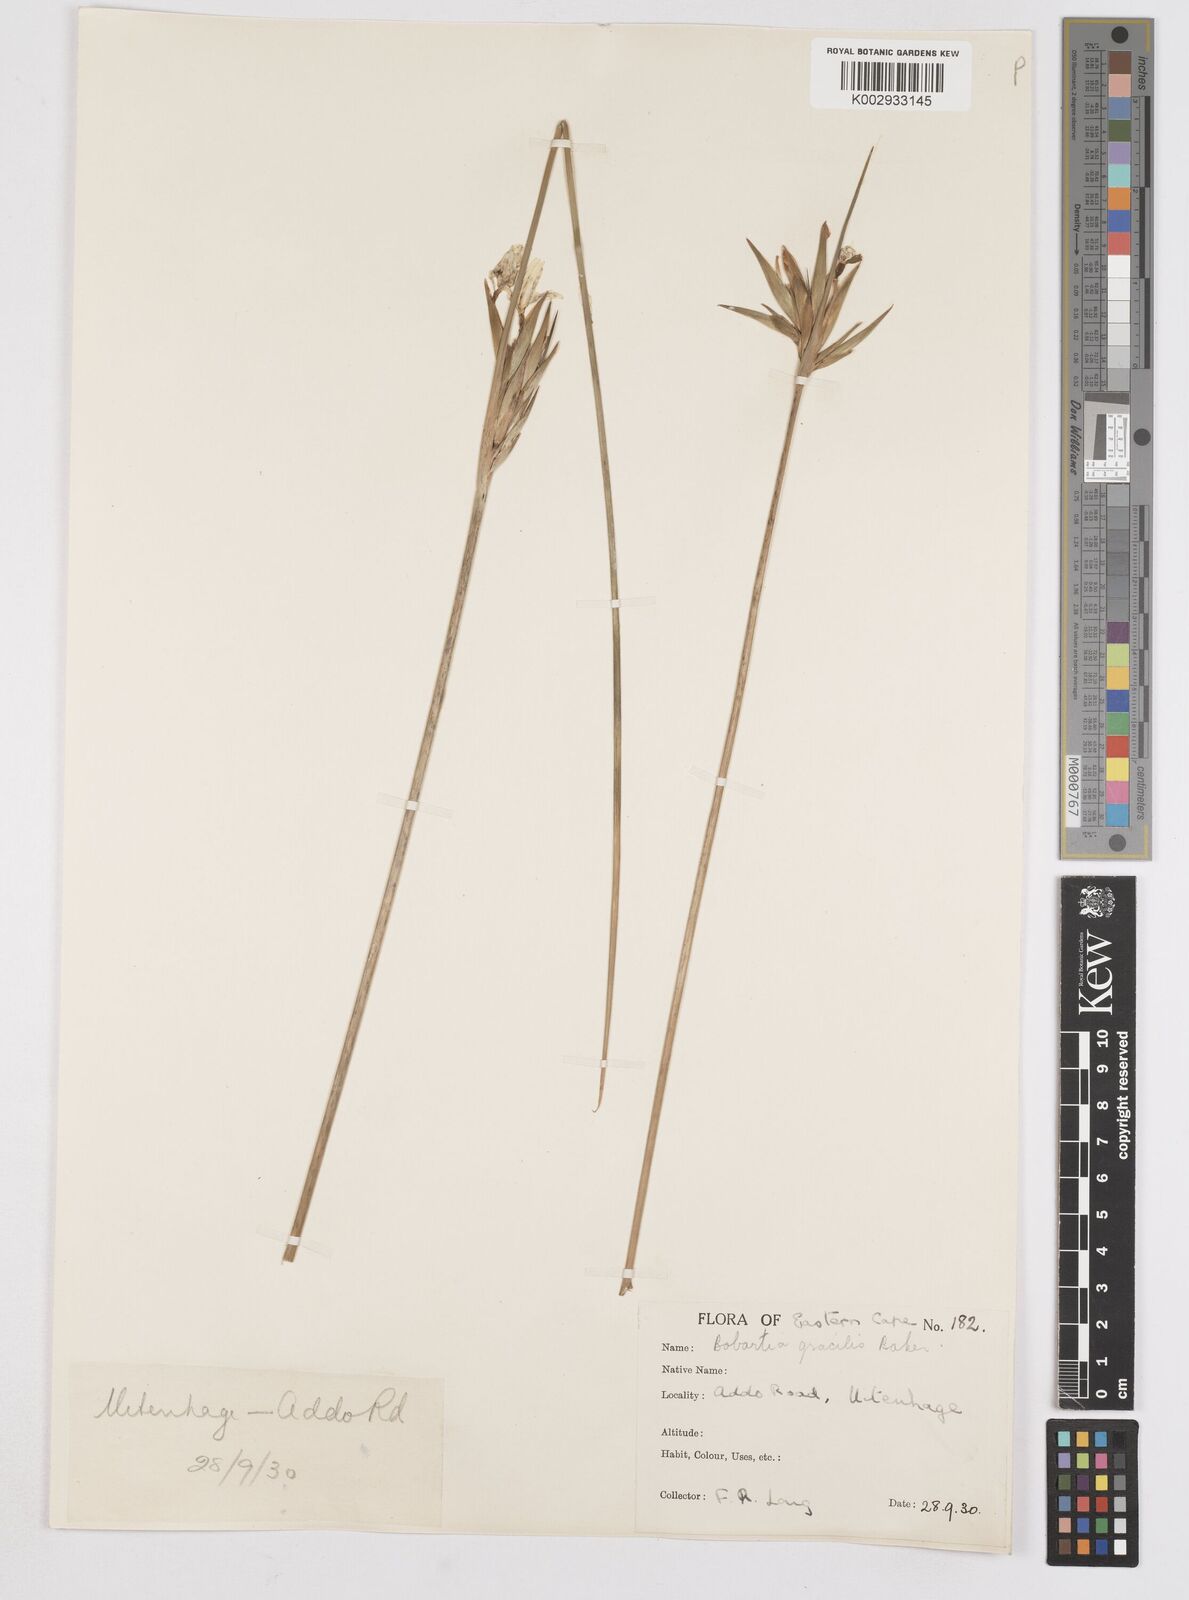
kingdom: Plantae
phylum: Tracheophyta
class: Liliopsida
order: Asparagales
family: Iridaceae
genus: Bobartia
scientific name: Bobartia gracilis
